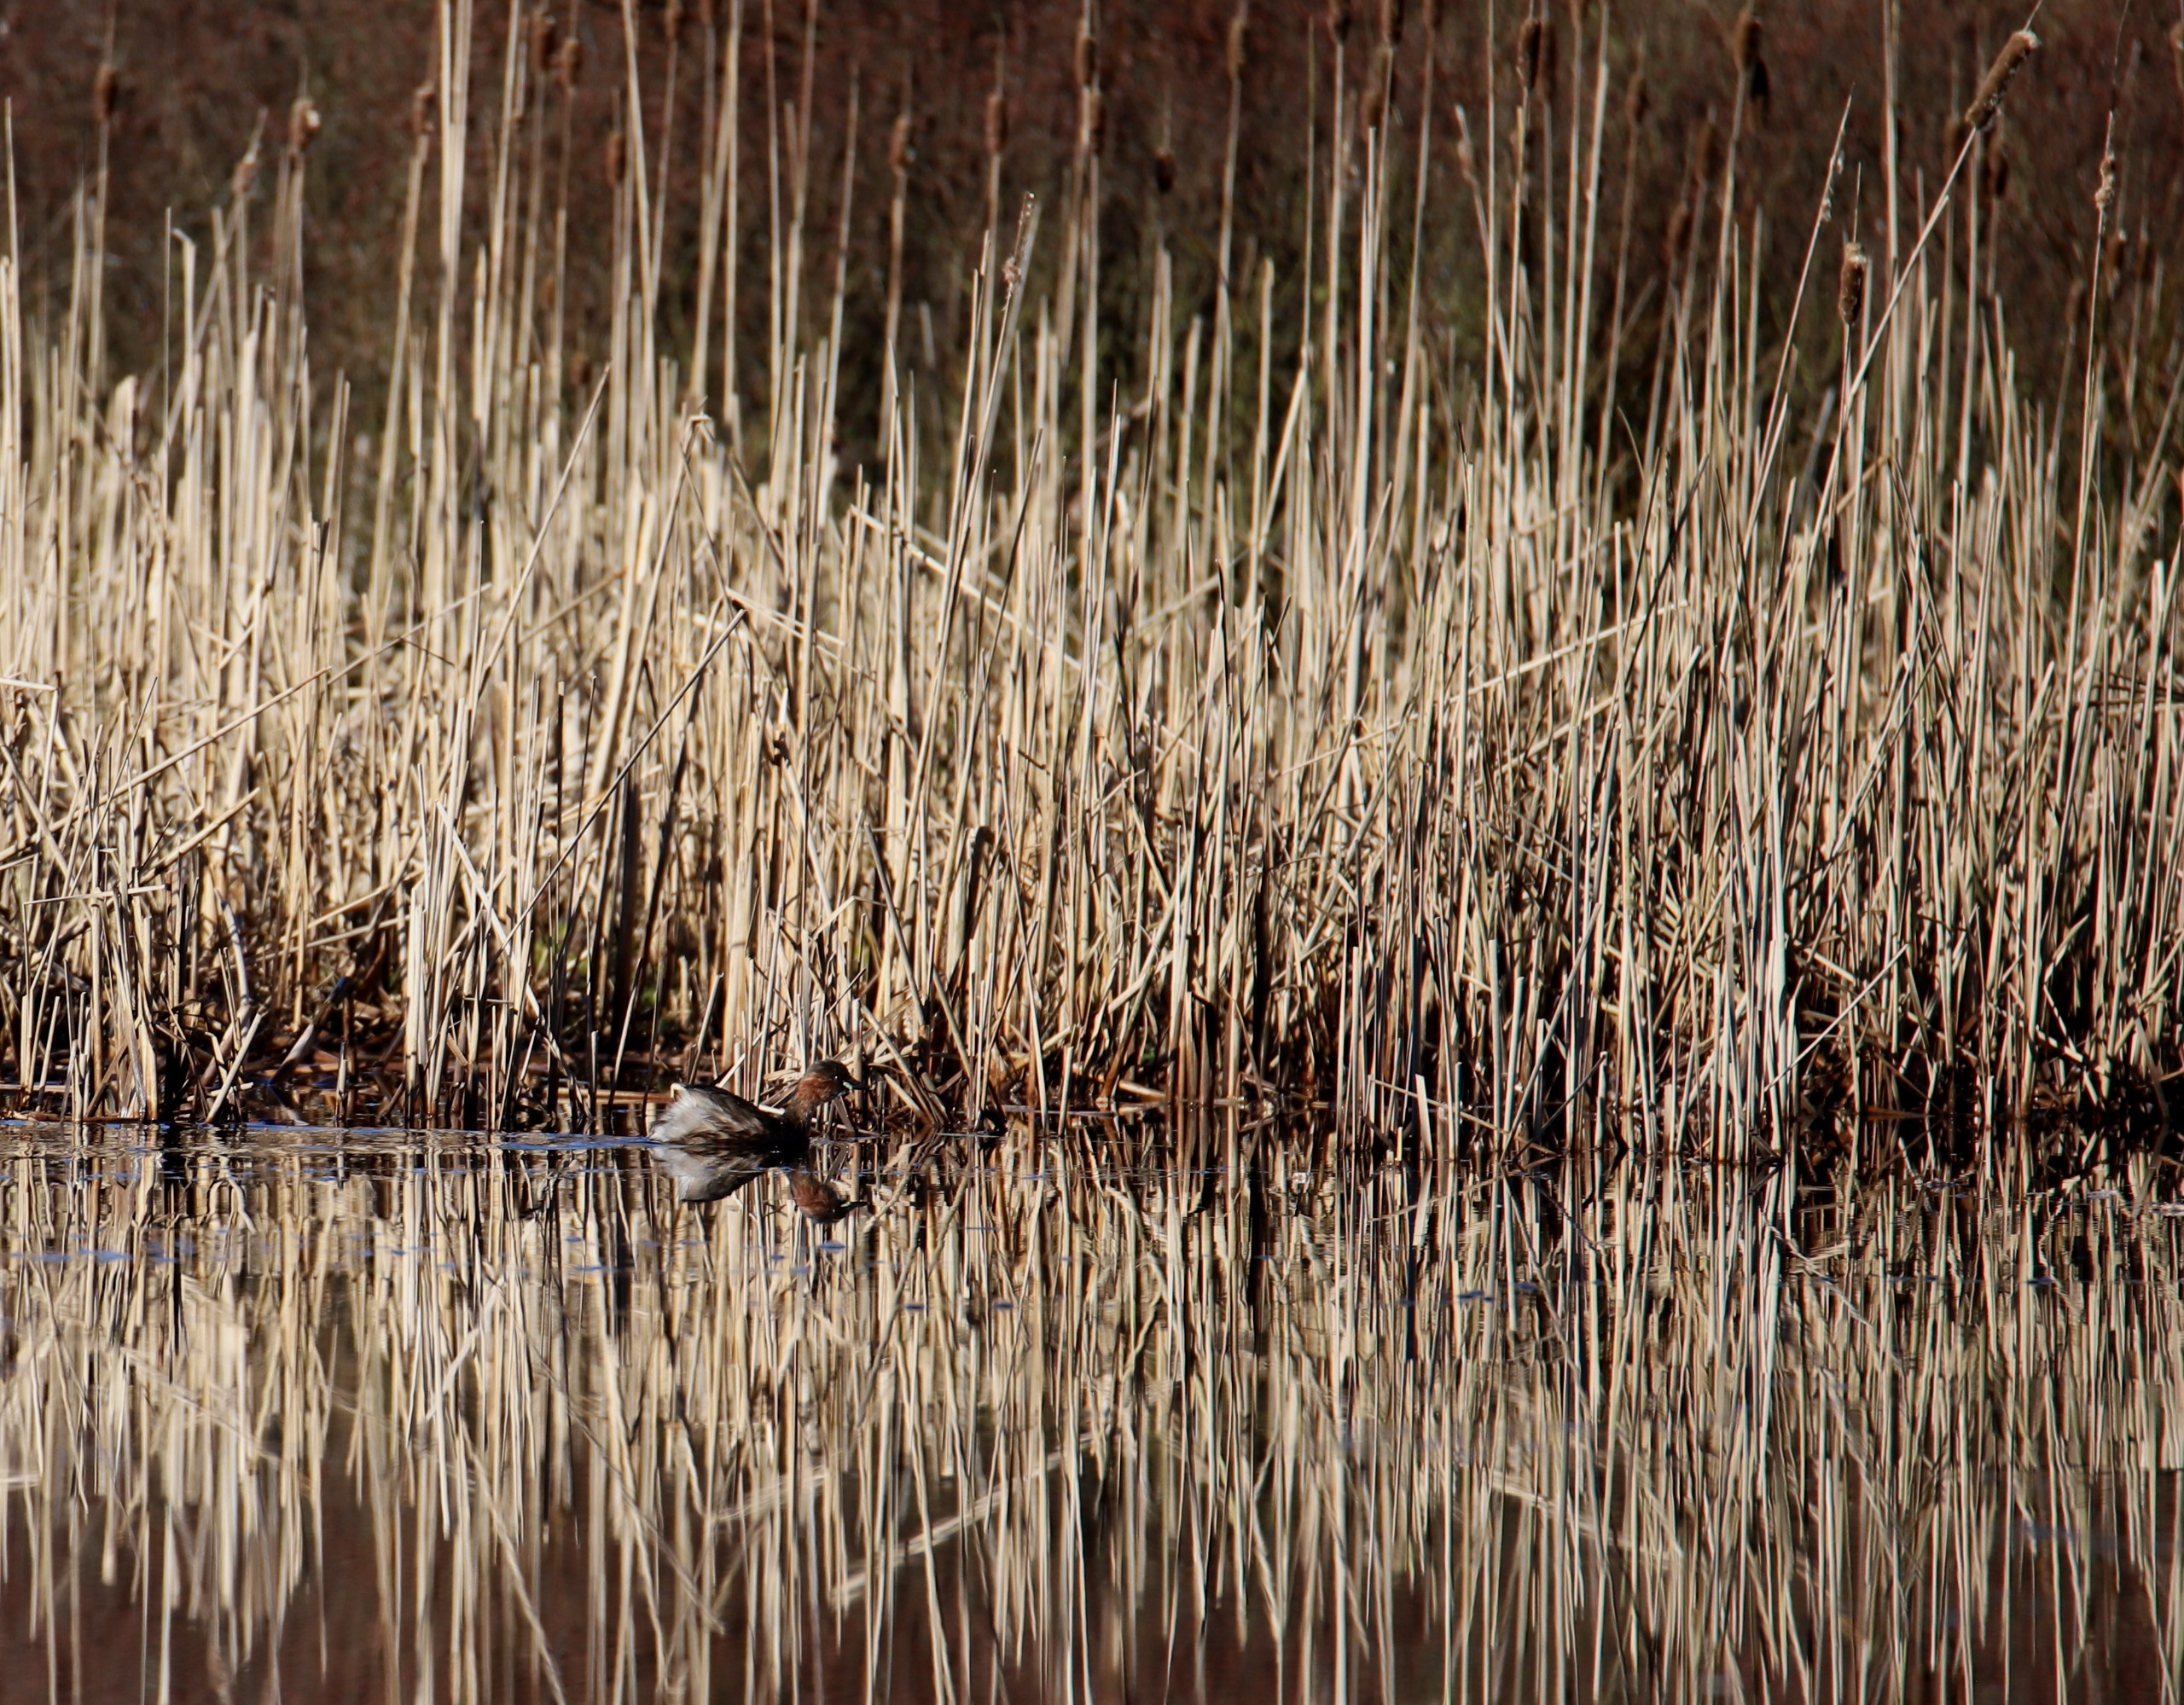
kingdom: Animalia
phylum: Chordata
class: Aves
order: Podicipediformes
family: Podicipedidae
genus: Tachybaptus
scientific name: Tachybaptus ruficollis
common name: Lille lappedykker
